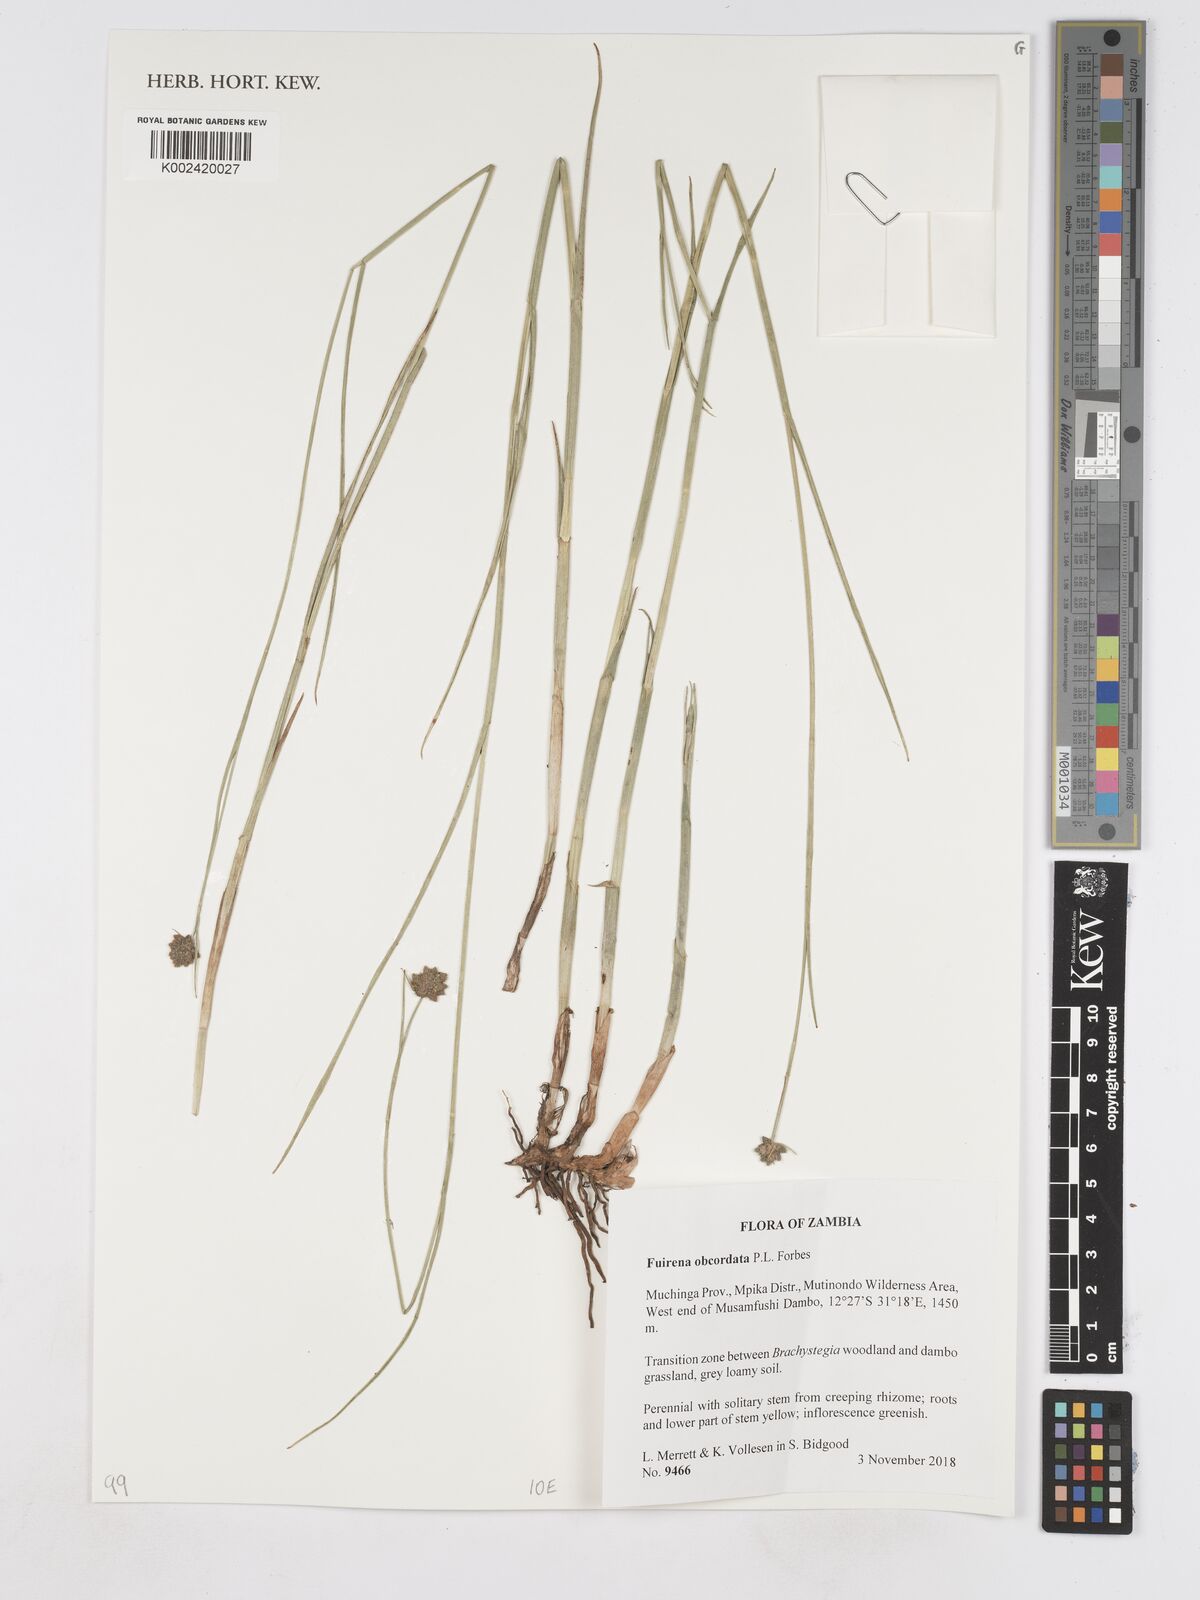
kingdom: Plantae
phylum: Tracheophyta
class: Liliopsida
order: Poales
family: Cyperaceae
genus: Fuirena
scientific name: Fuirena obcordata
